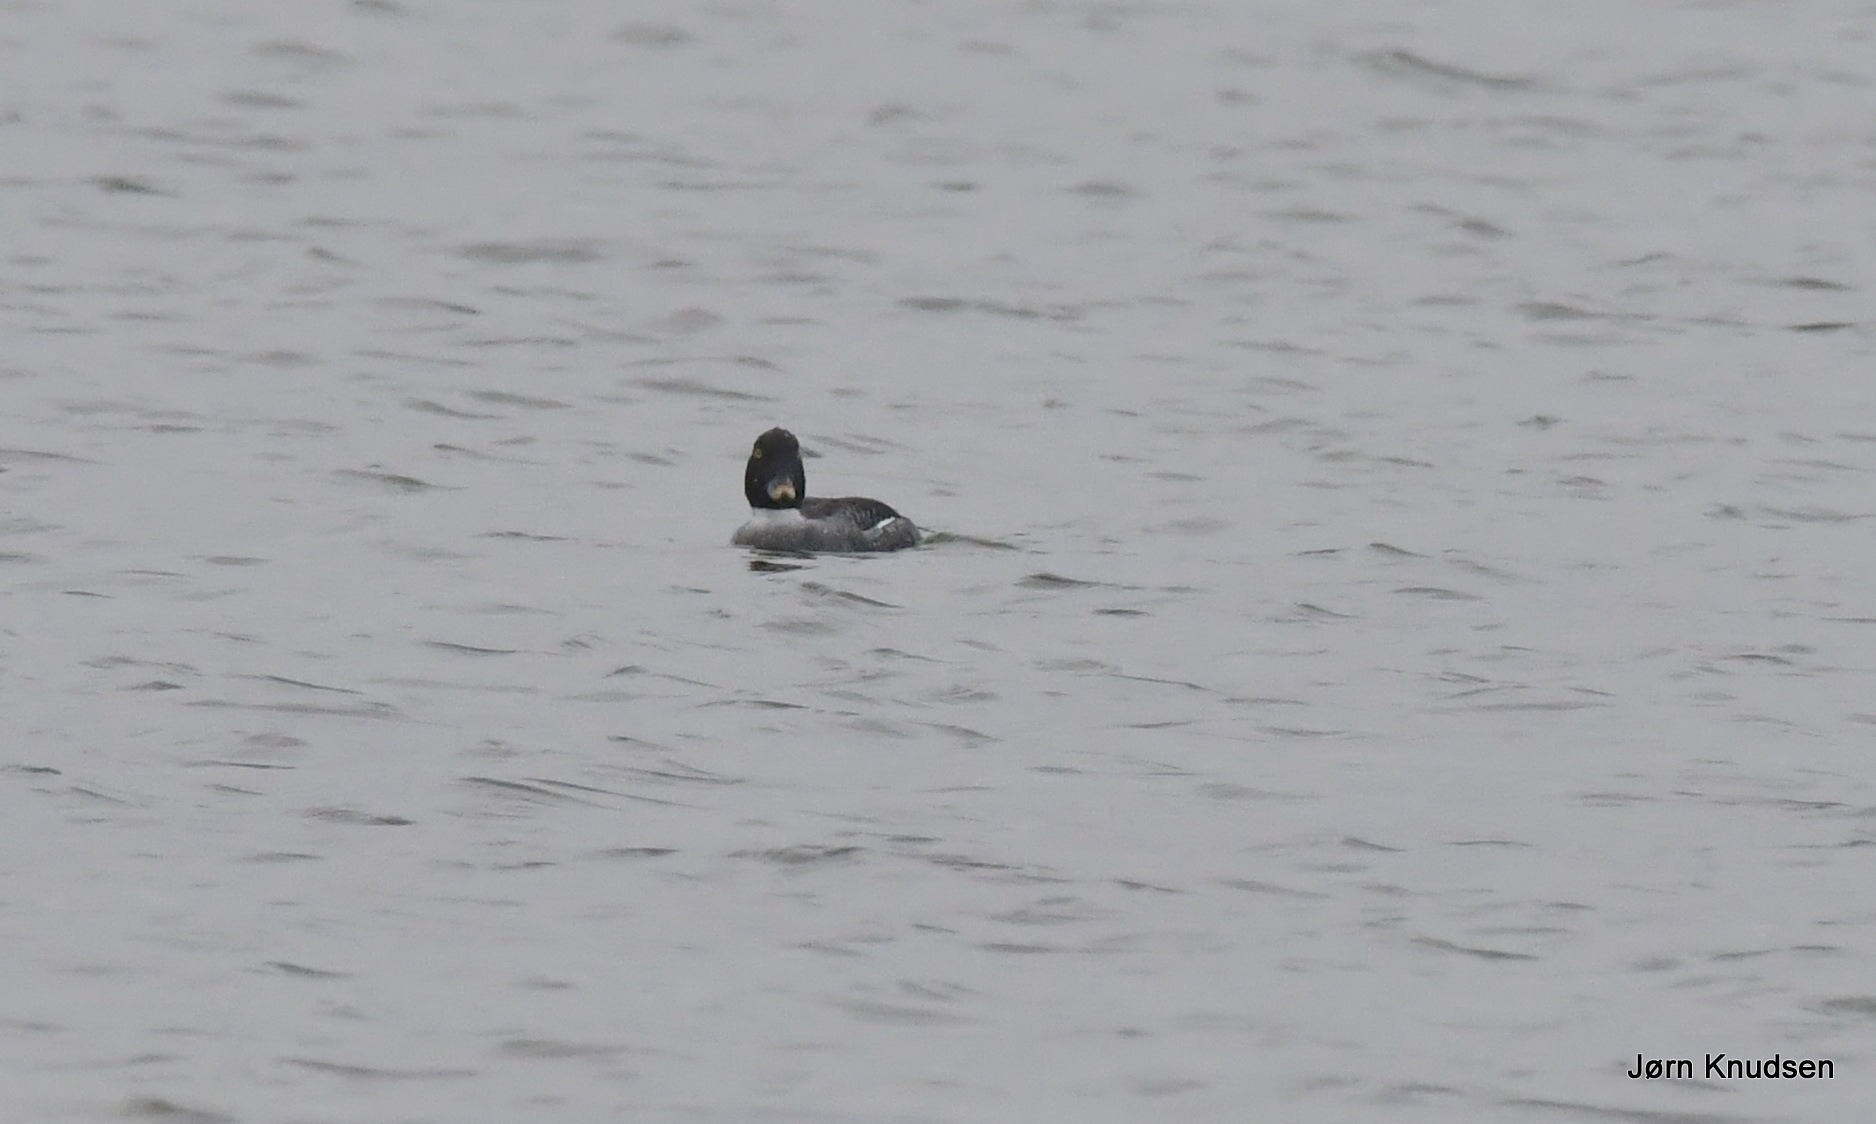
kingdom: Animalia
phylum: Chordata
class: Aves
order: Anseriformes
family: Anatidae
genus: Bucephala
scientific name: Bucephala clangula
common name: Hvinand
